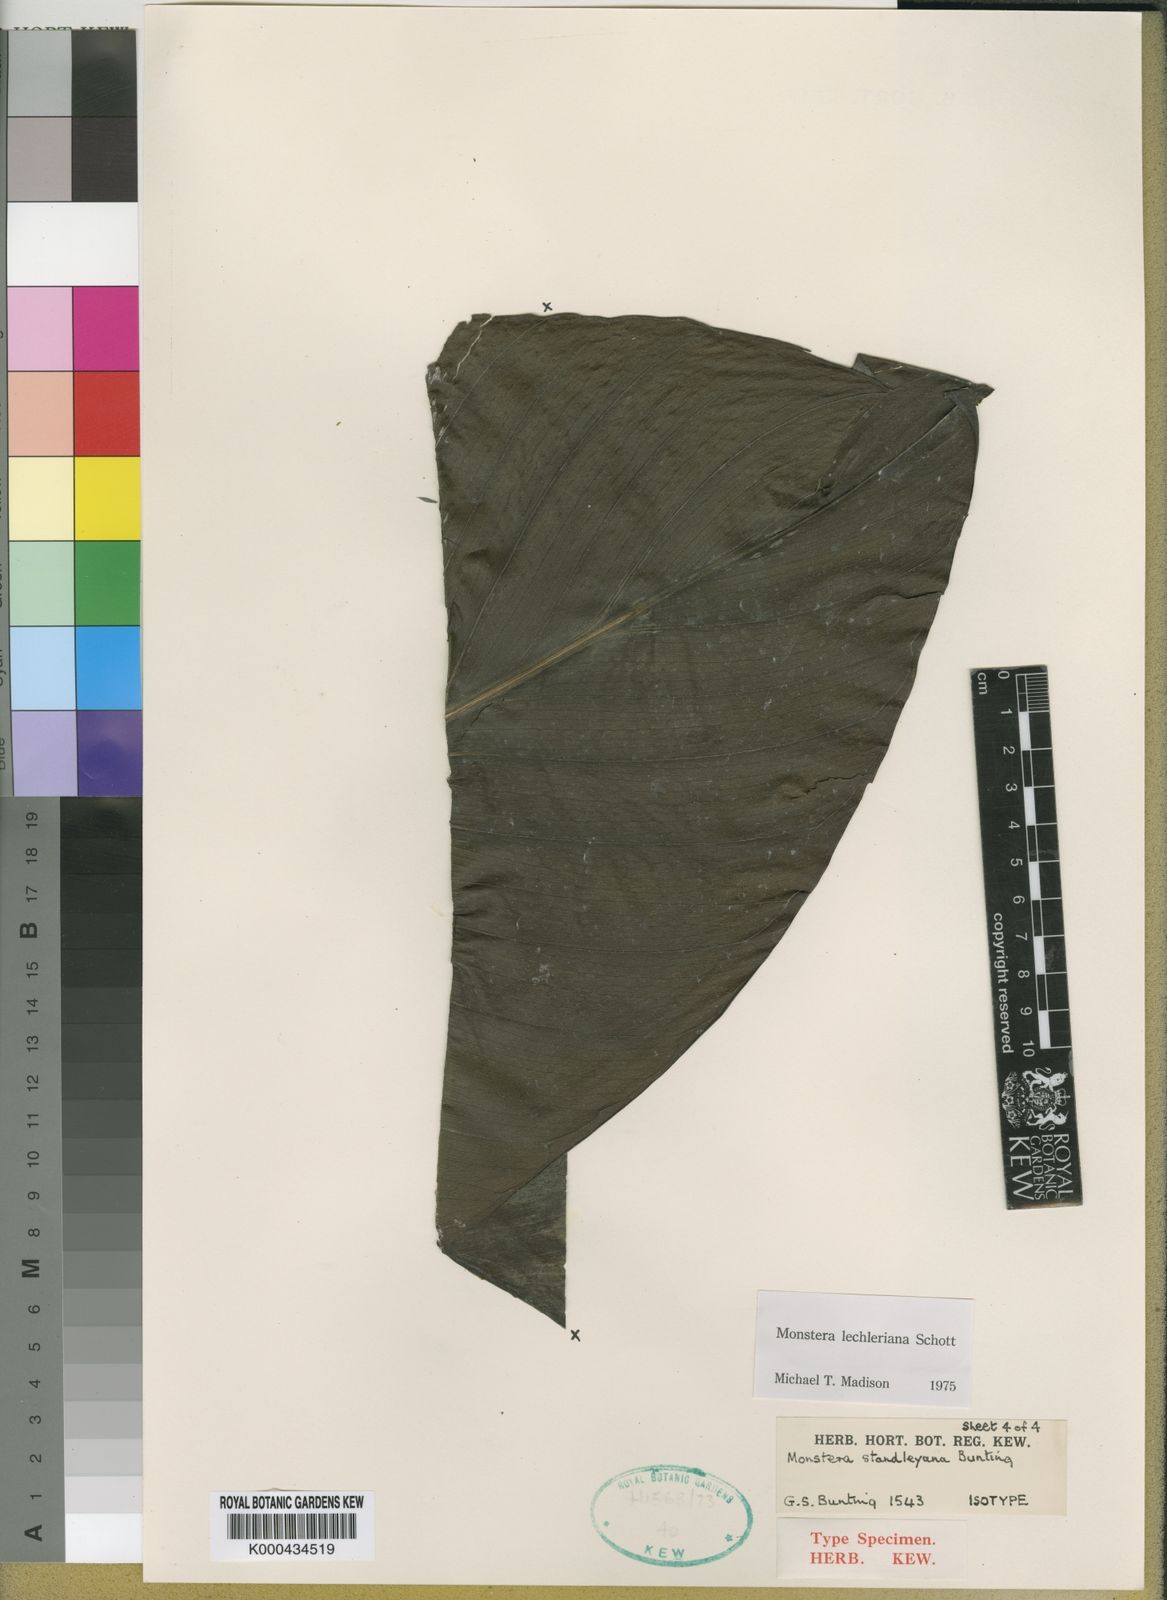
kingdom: Plantae
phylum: Tracheophyta
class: Liliopsida
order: Alismatales
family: Araceae
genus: Monstera
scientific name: Monstera lechleriana
